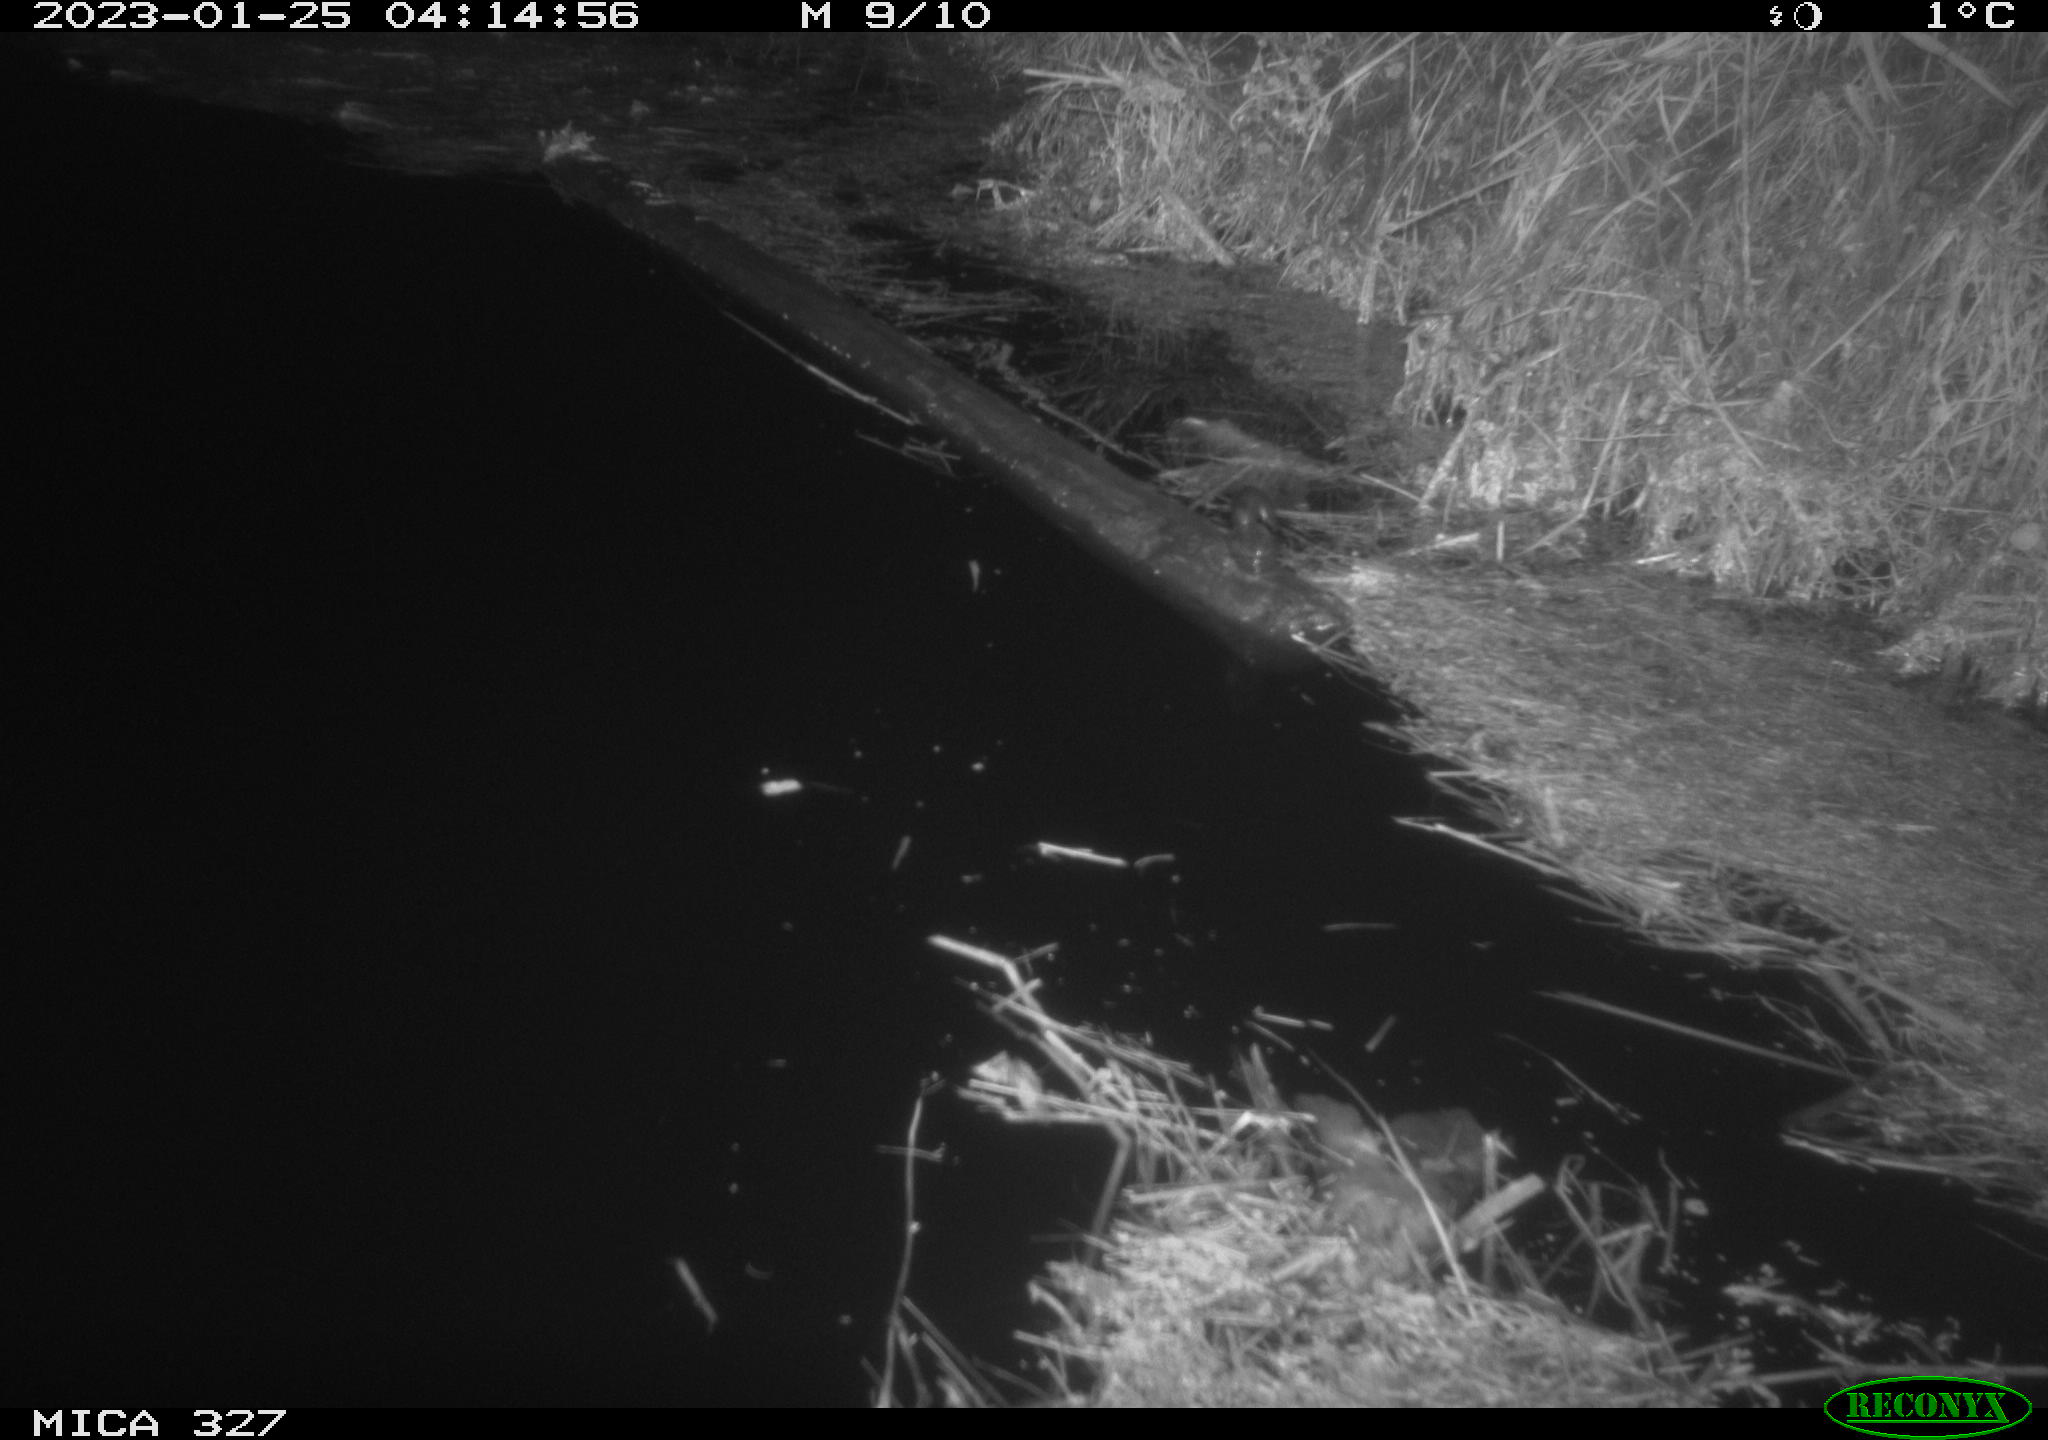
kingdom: Animalia
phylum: Chordata
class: Mammalia
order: Rodentia
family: Cricetidae
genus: Ondatra
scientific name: Ondatra zibethicus
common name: Muskrat
